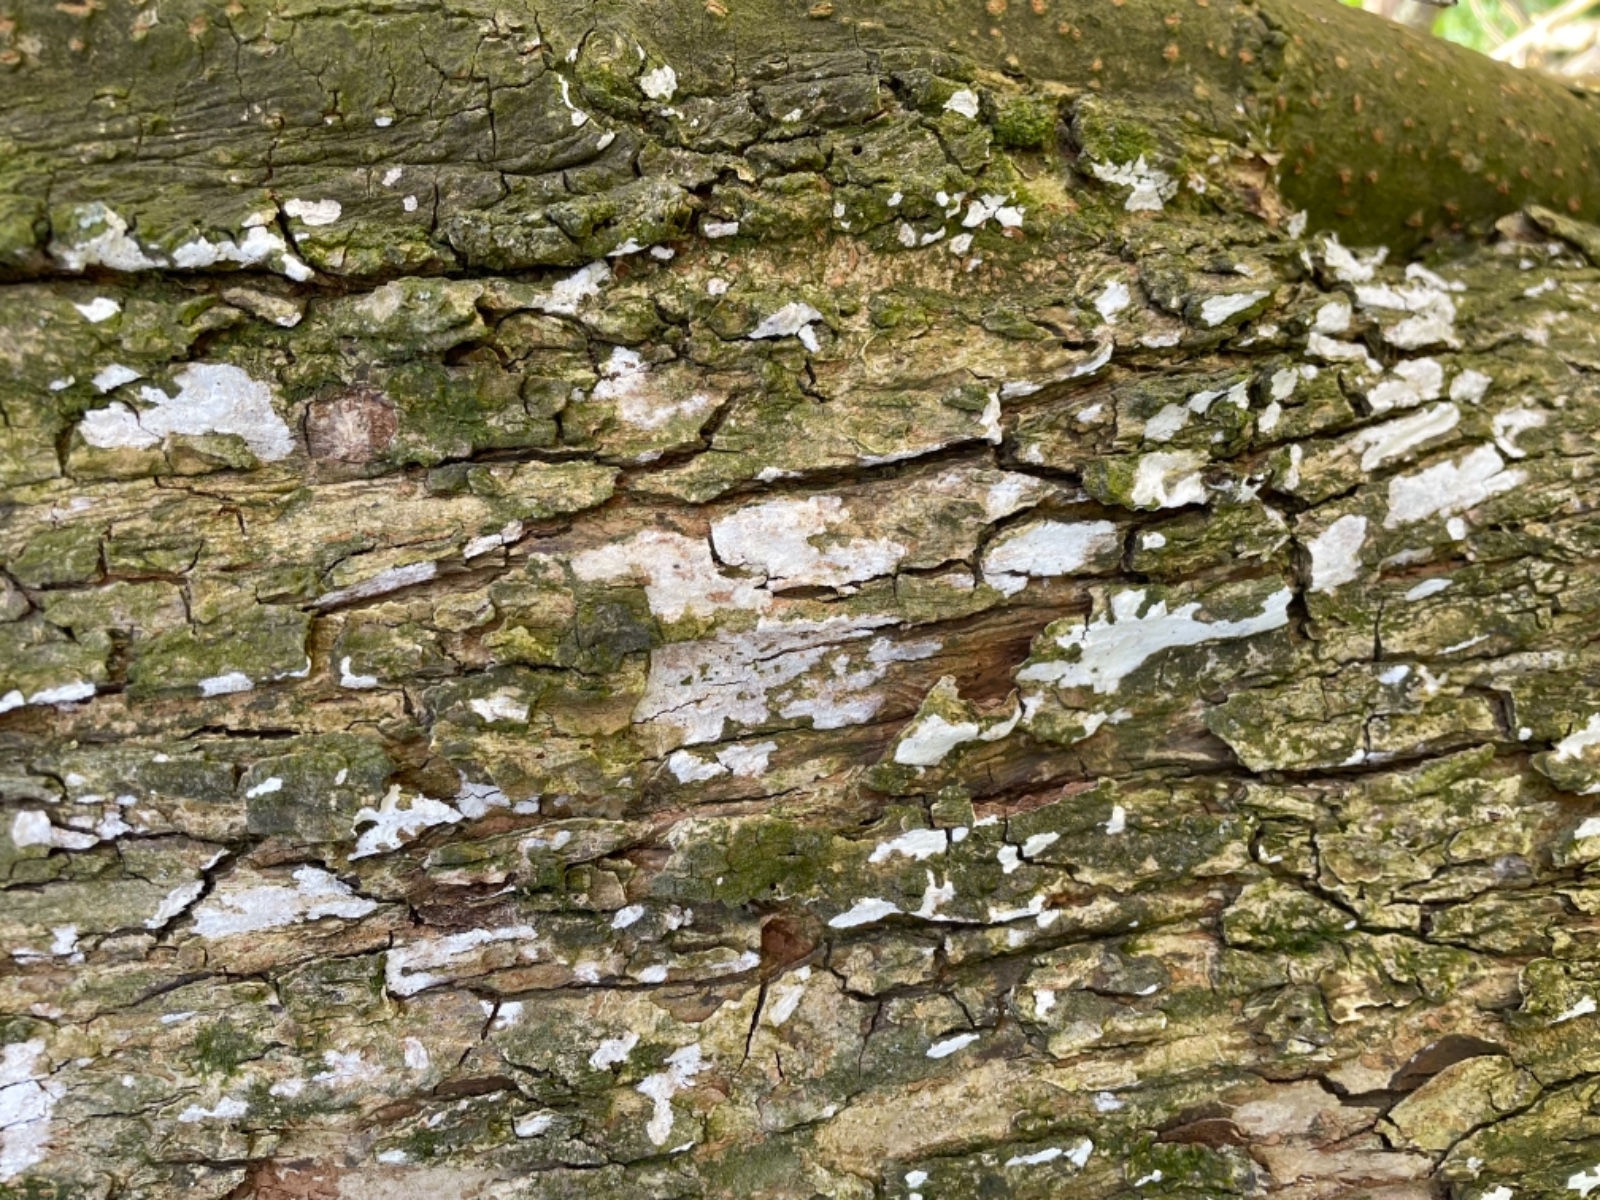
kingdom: Fungi
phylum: Basidiomycota
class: Agaricomycetes
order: Agaricales
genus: Dendrothele
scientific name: Dendrothele acerina
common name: navr-kalkplet
